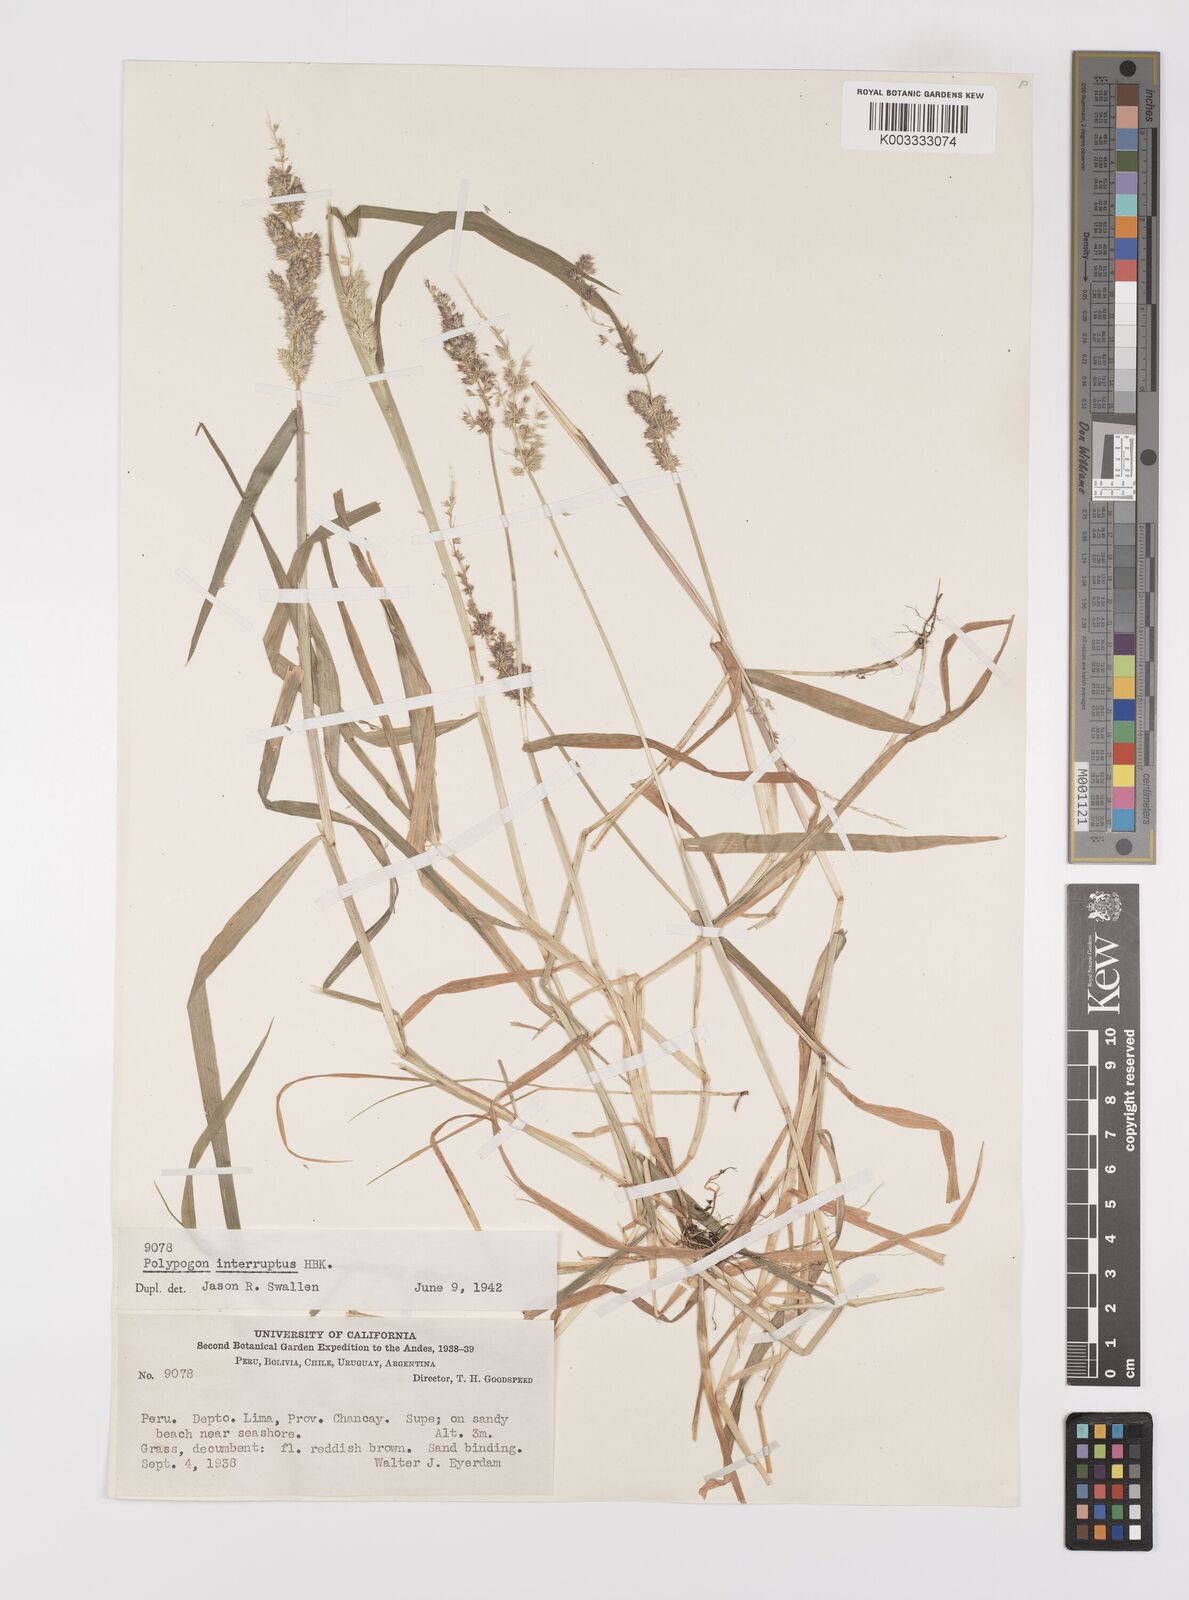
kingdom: Plantae
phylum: Tracheophyta
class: Liliopsida
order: Poales
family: Poaceae
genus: Polypogon
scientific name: Polypogon interruptus
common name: Ditch polypogon
